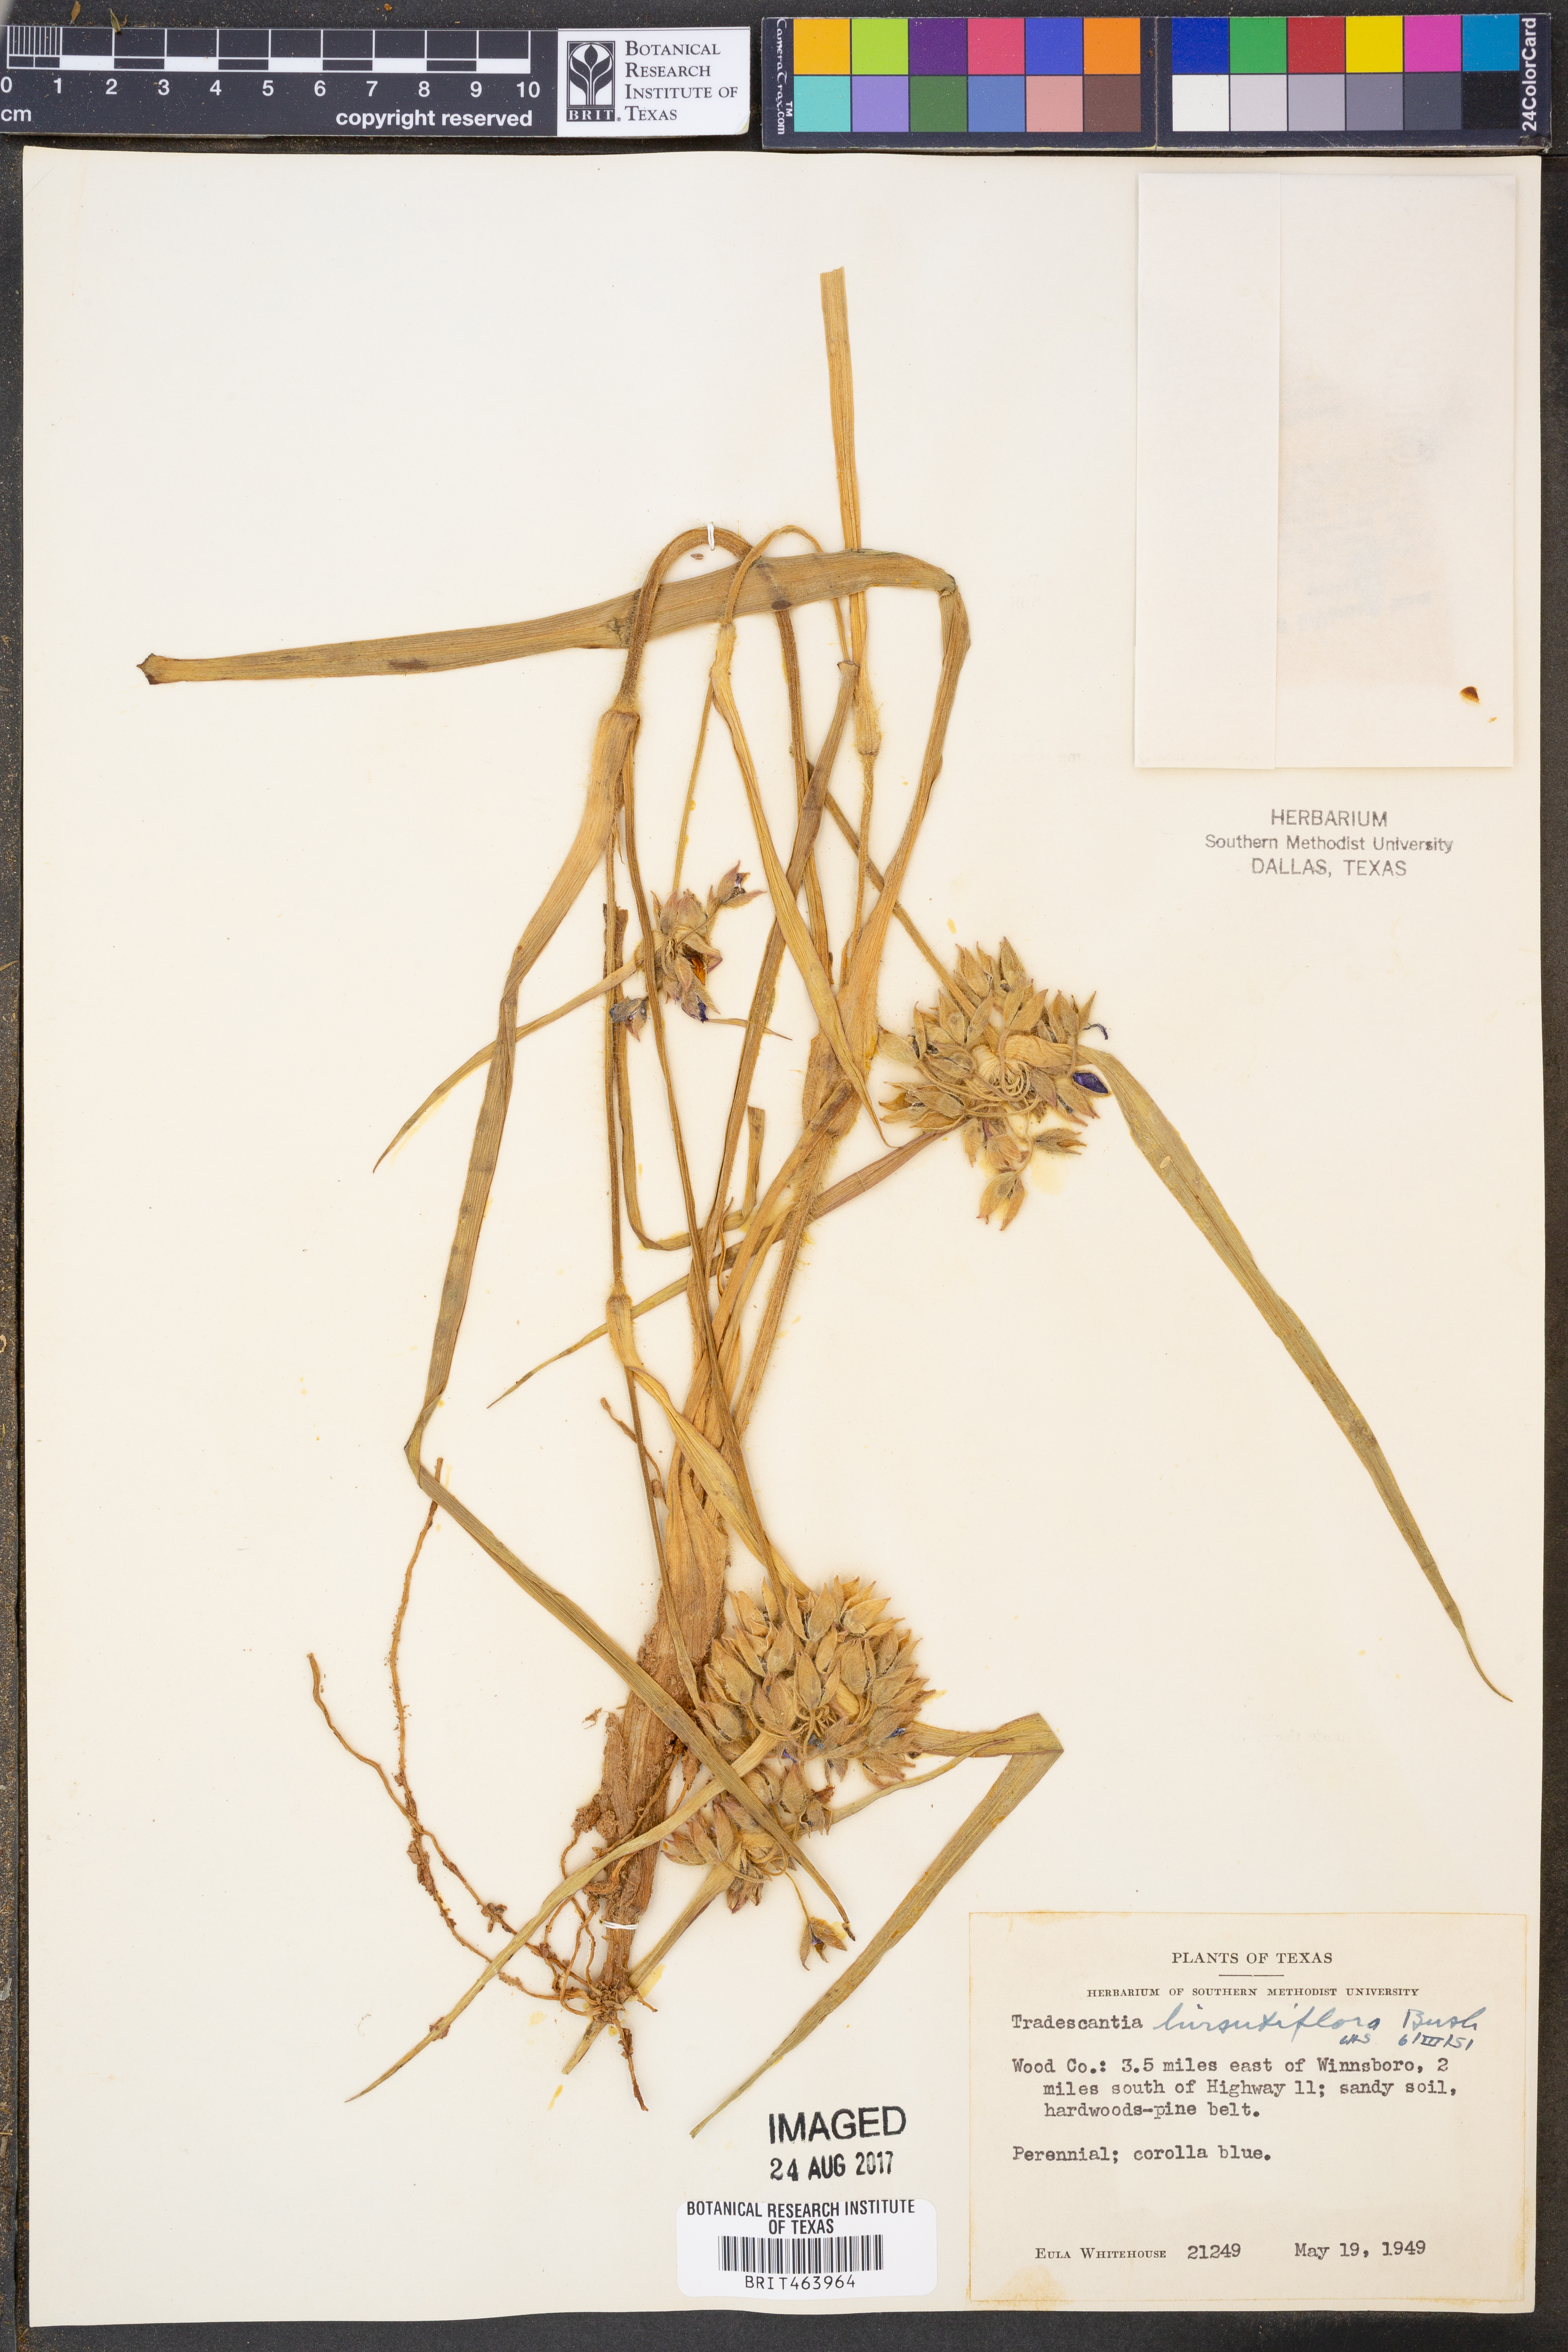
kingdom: Plantae
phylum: Tracheophyta
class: Liliopsida
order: Commelinales
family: Commelinaceae
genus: Tradescantia
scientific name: Tradescantia hirsutiflora
